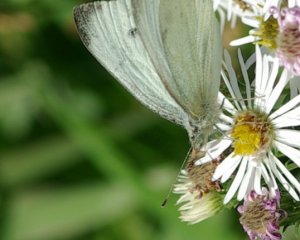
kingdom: Animalia
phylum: Arthropoda
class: Insecta
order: Lepidoptera
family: Pieridae
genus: Pieris
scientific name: Pieris rapae
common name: Cabbage White
